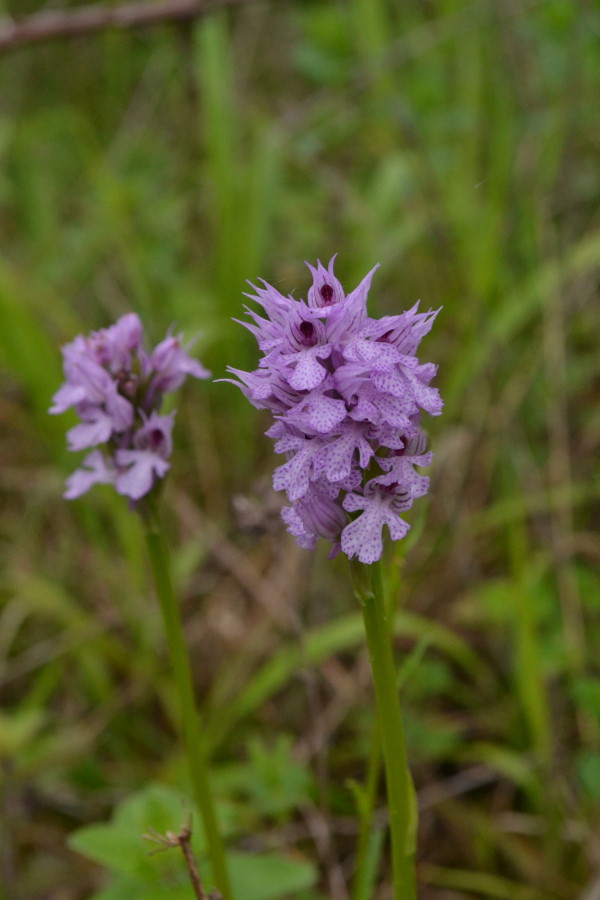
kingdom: Plantae
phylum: Tracheophyta
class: Liliopsida
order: Asparagales
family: Orchidaceae
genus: Neotinea
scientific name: Neotinea tridentata
